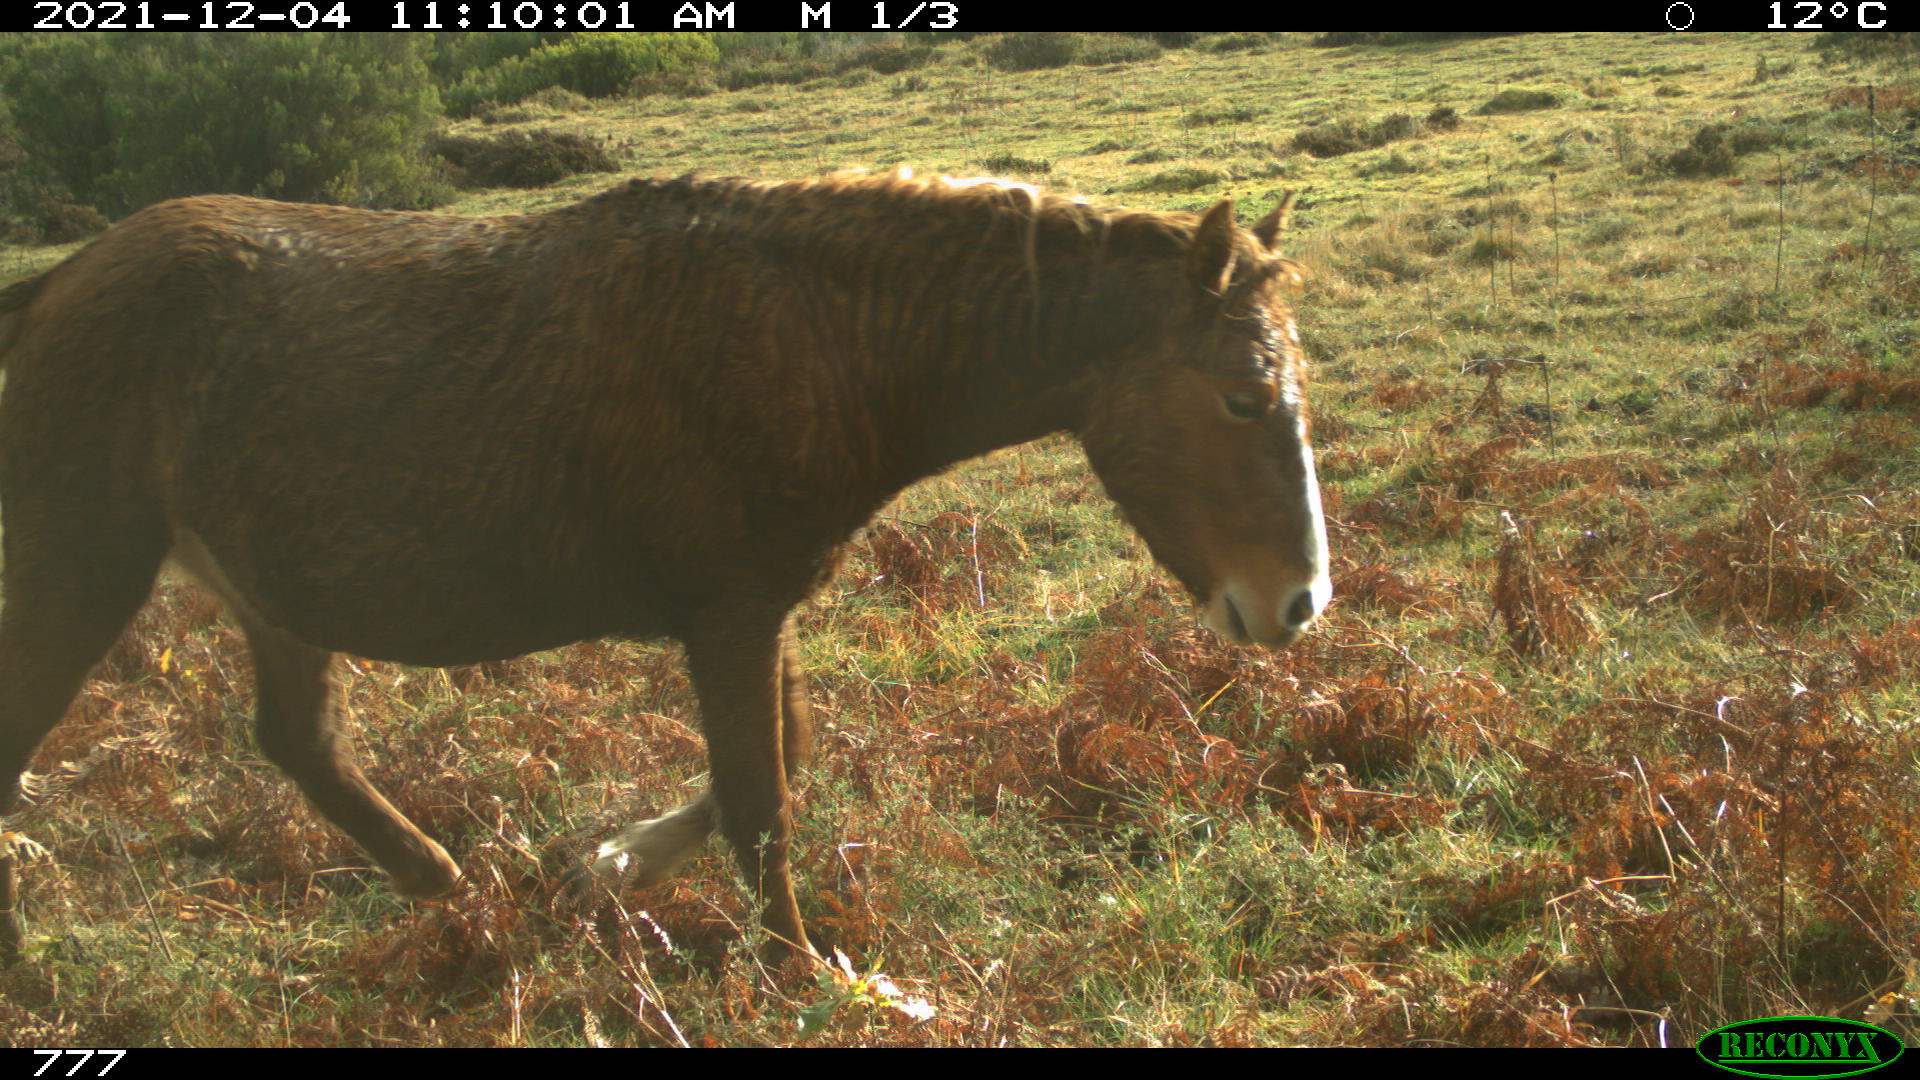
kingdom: Animalia
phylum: Chordata
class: Mammalia
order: Perissodactyla
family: Equidae
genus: Equus
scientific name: Equus caballus
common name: Horse
